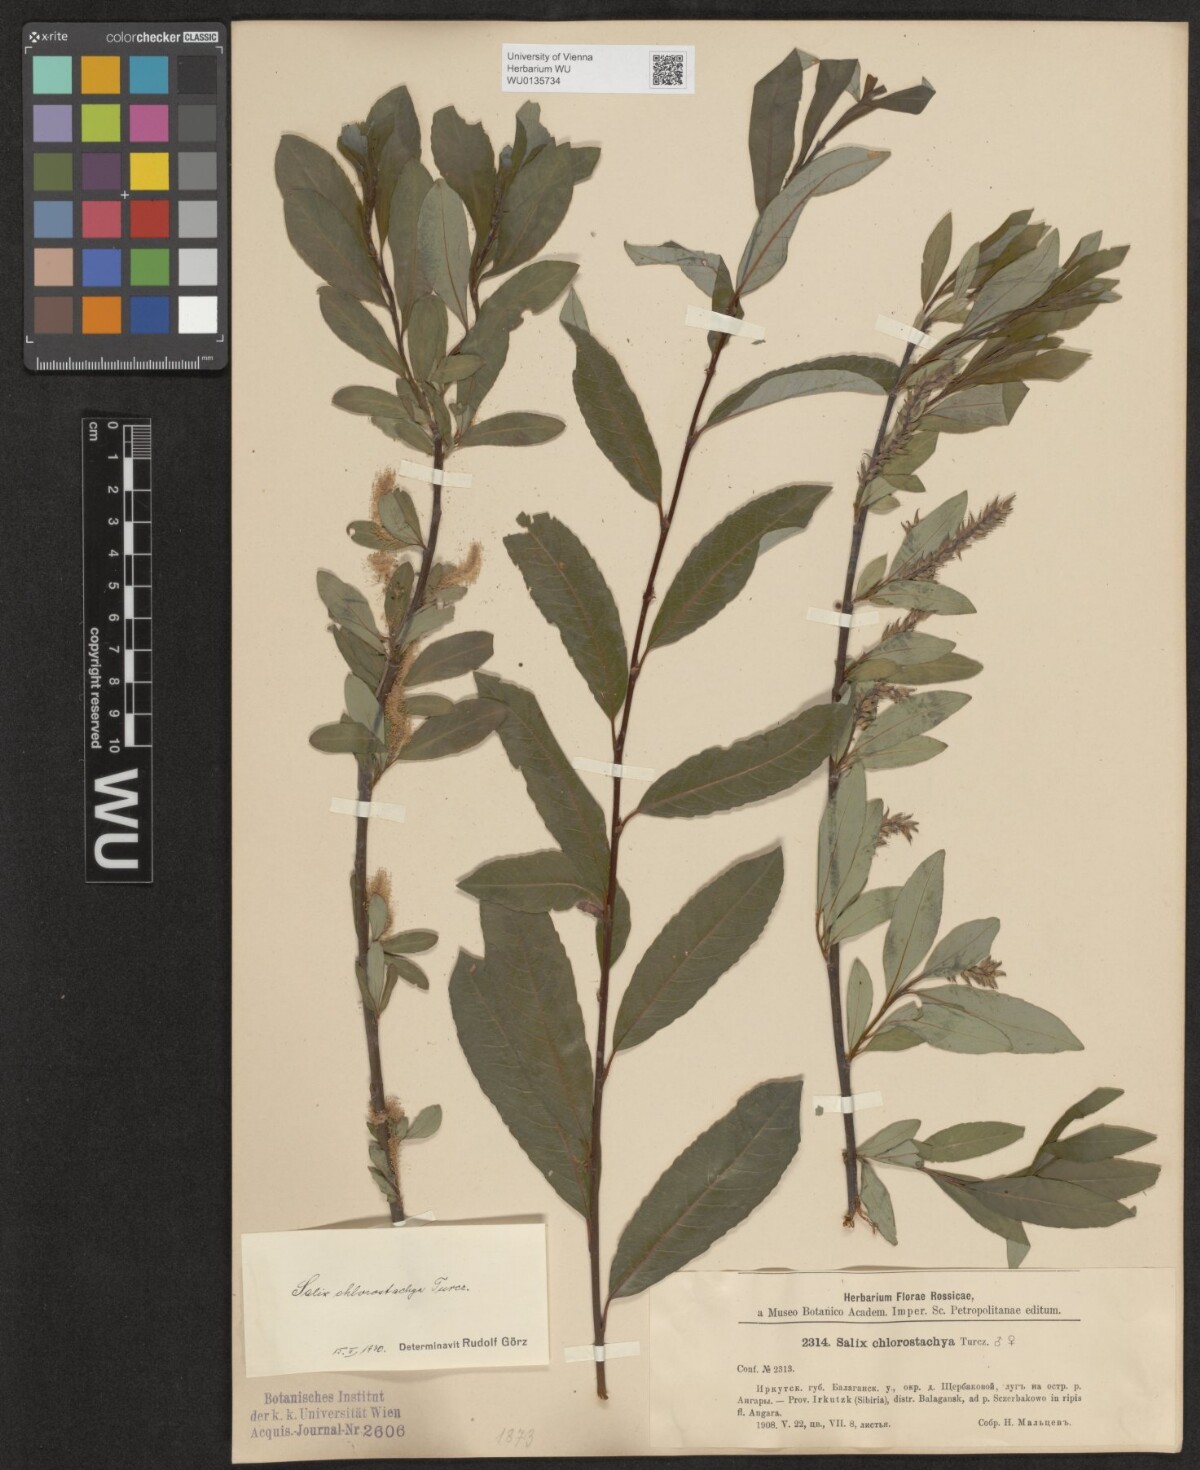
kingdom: Plantae
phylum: Tracheophyta
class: Magnoliopsida
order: Malpighiales
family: Salicaceae
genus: Salix
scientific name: Salix rhamnifolia
